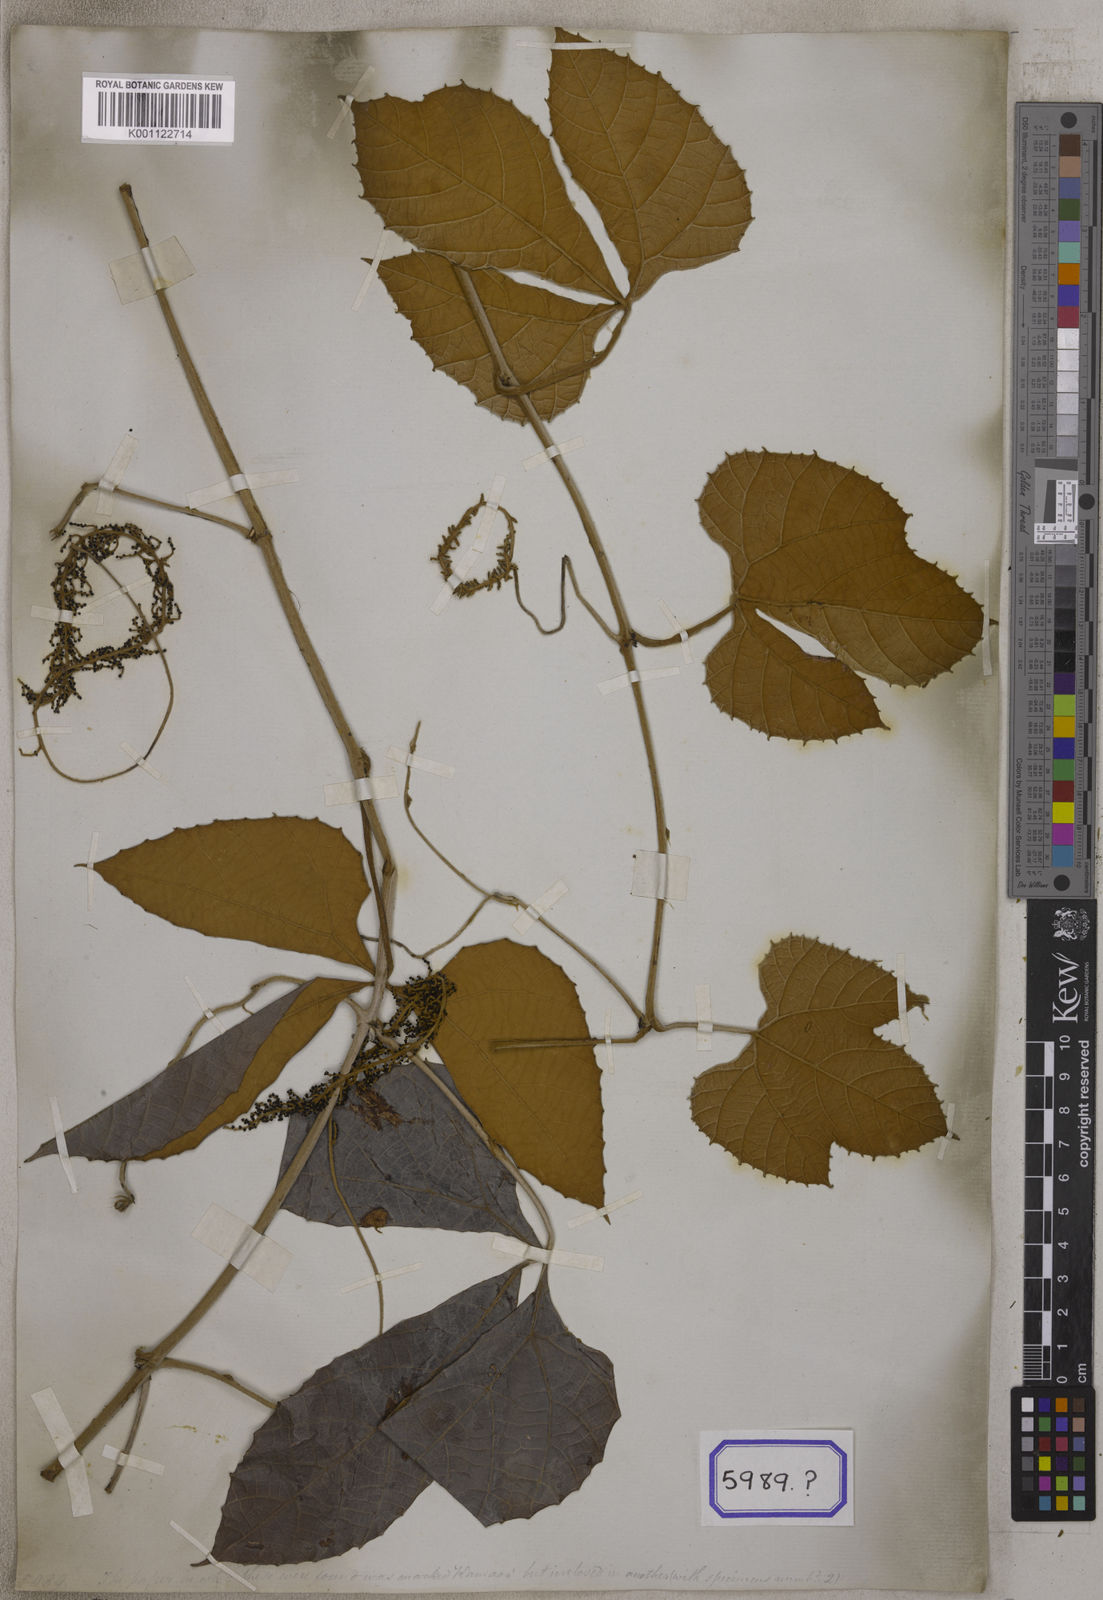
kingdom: Plantae
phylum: Tracheophyta
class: Magnoliopsida
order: Vitales
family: Vitaceae
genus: Ampelocissus
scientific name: Ampelocissus cinnamomea
